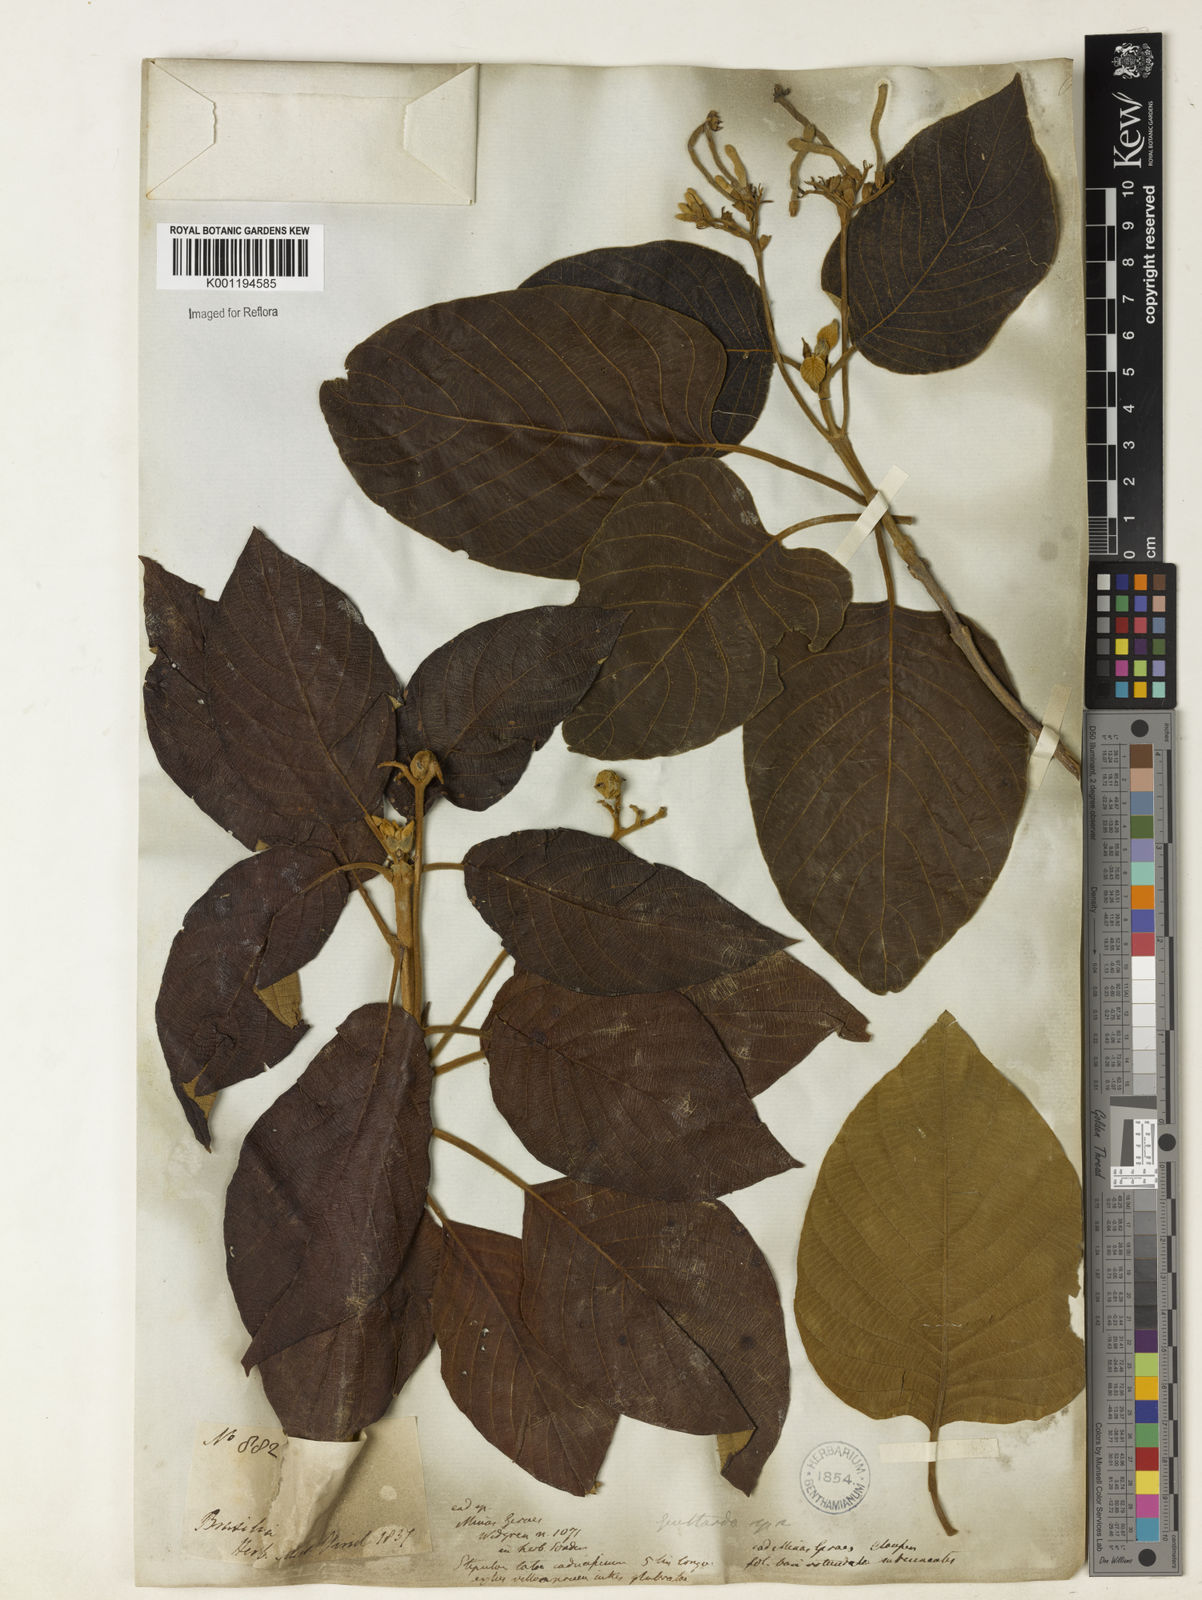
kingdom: Plantae
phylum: Tracheophyta
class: Magnoliopsida
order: Gentianales
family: Rubiaceae
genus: Guettarda
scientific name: Guettarda viburnoides
